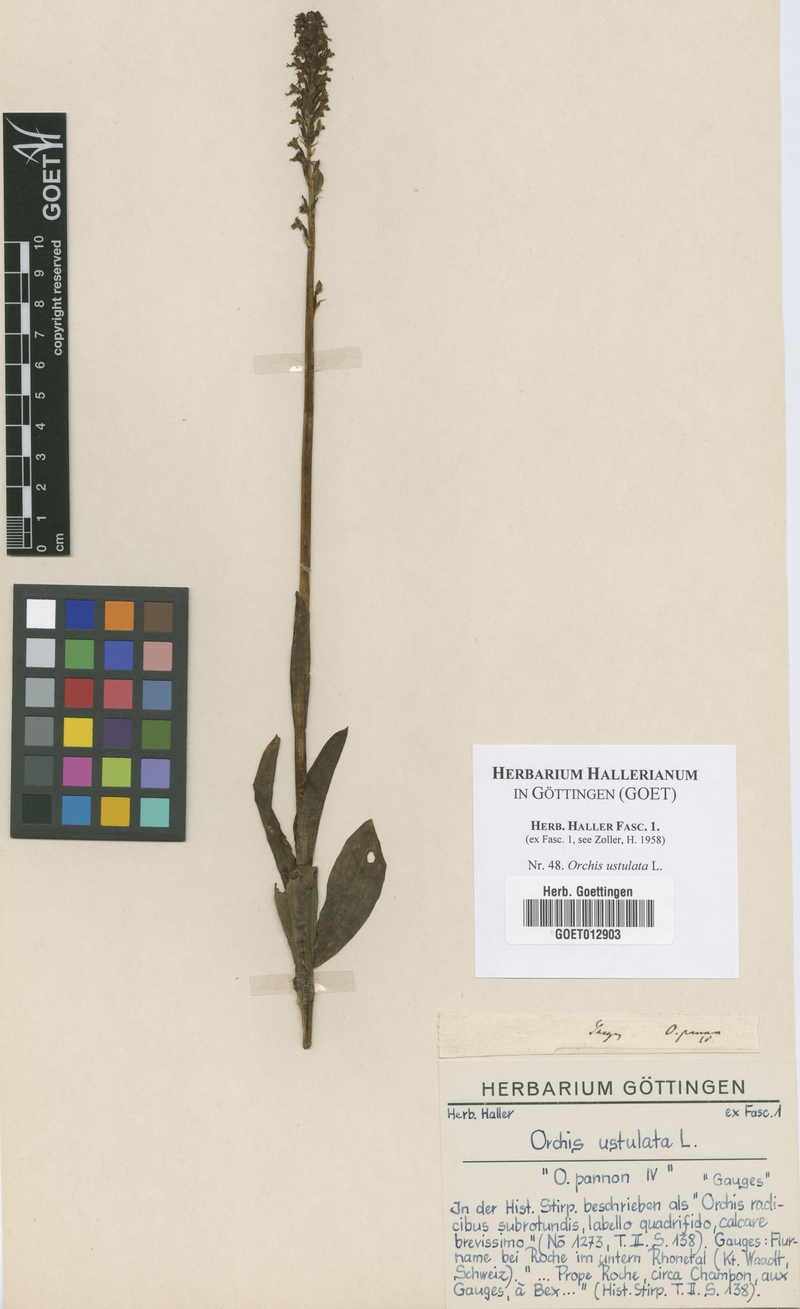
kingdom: Plantae
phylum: Tracheophyta
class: Liliopsida
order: Asparagales
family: Orchidaceae
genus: Neotinea
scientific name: Neotinea ustulata
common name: Burnt orchid
